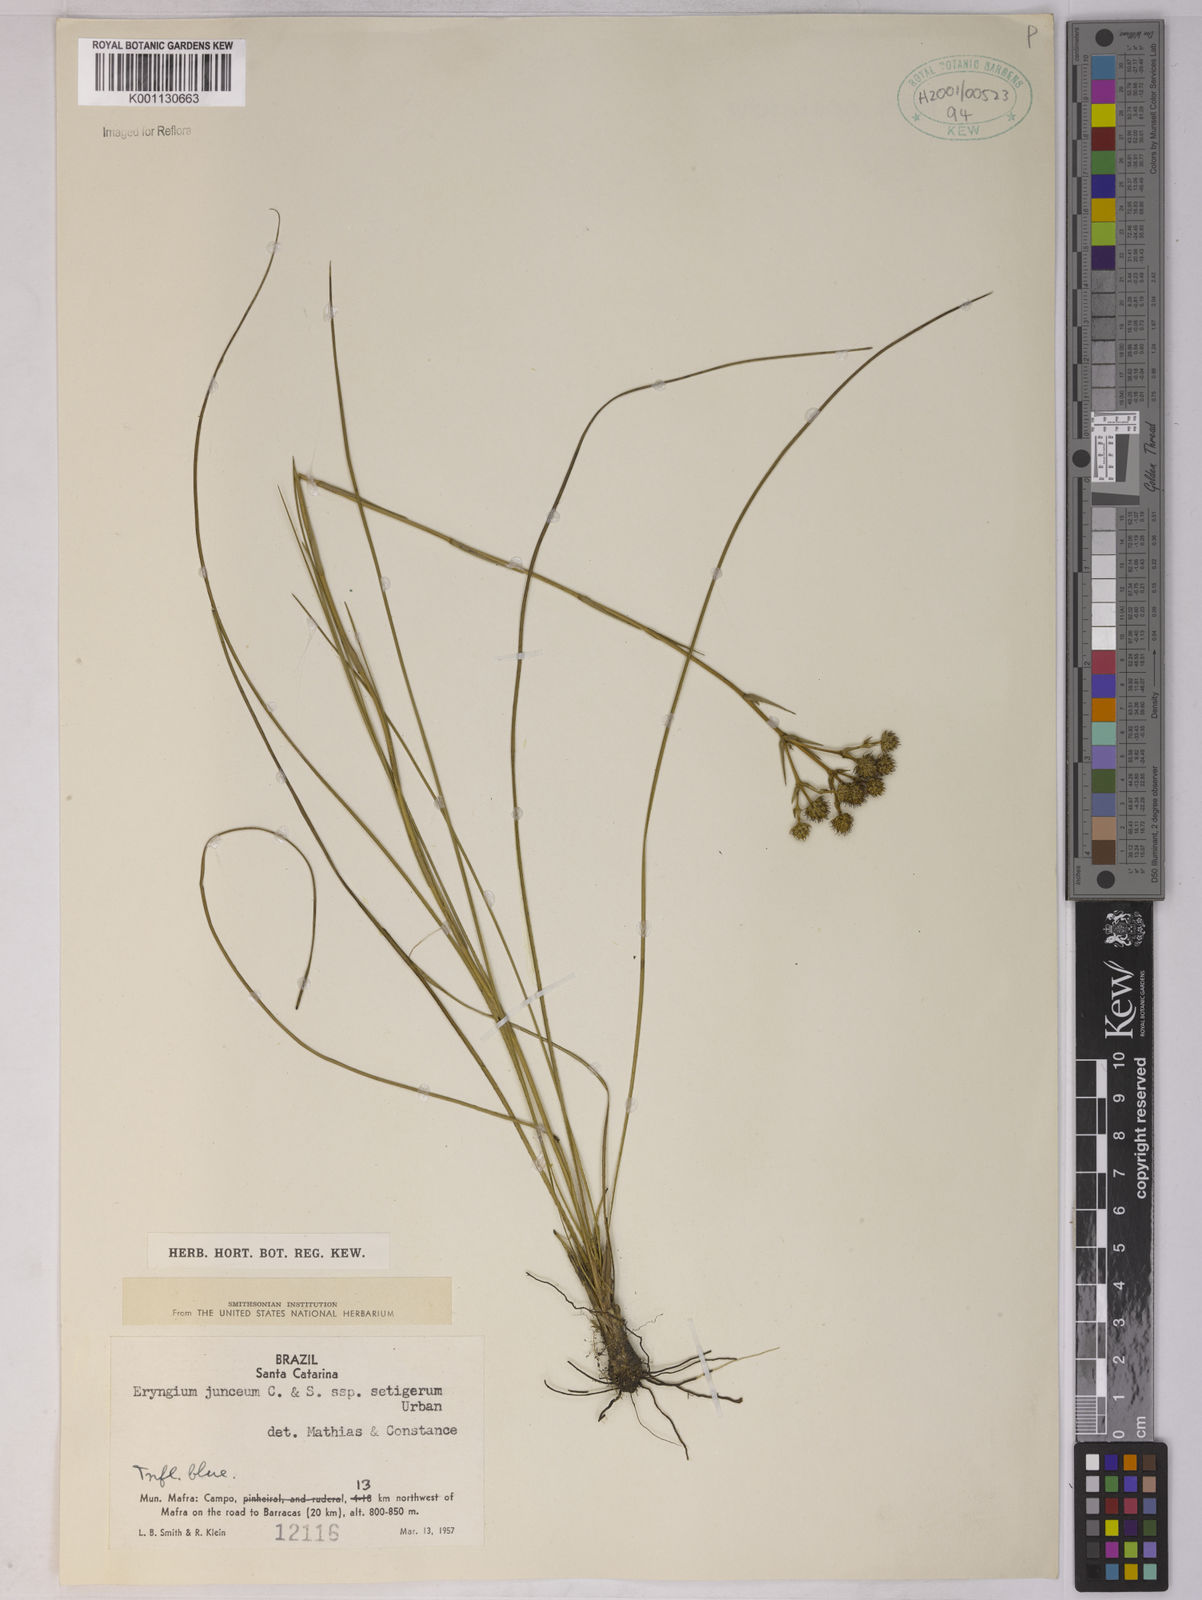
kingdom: Plantae
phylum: Tracheophyta
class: Magnoliopsida
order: Apiales
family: Apiaceae
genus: Eryngium
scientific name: Eryngium junceum
